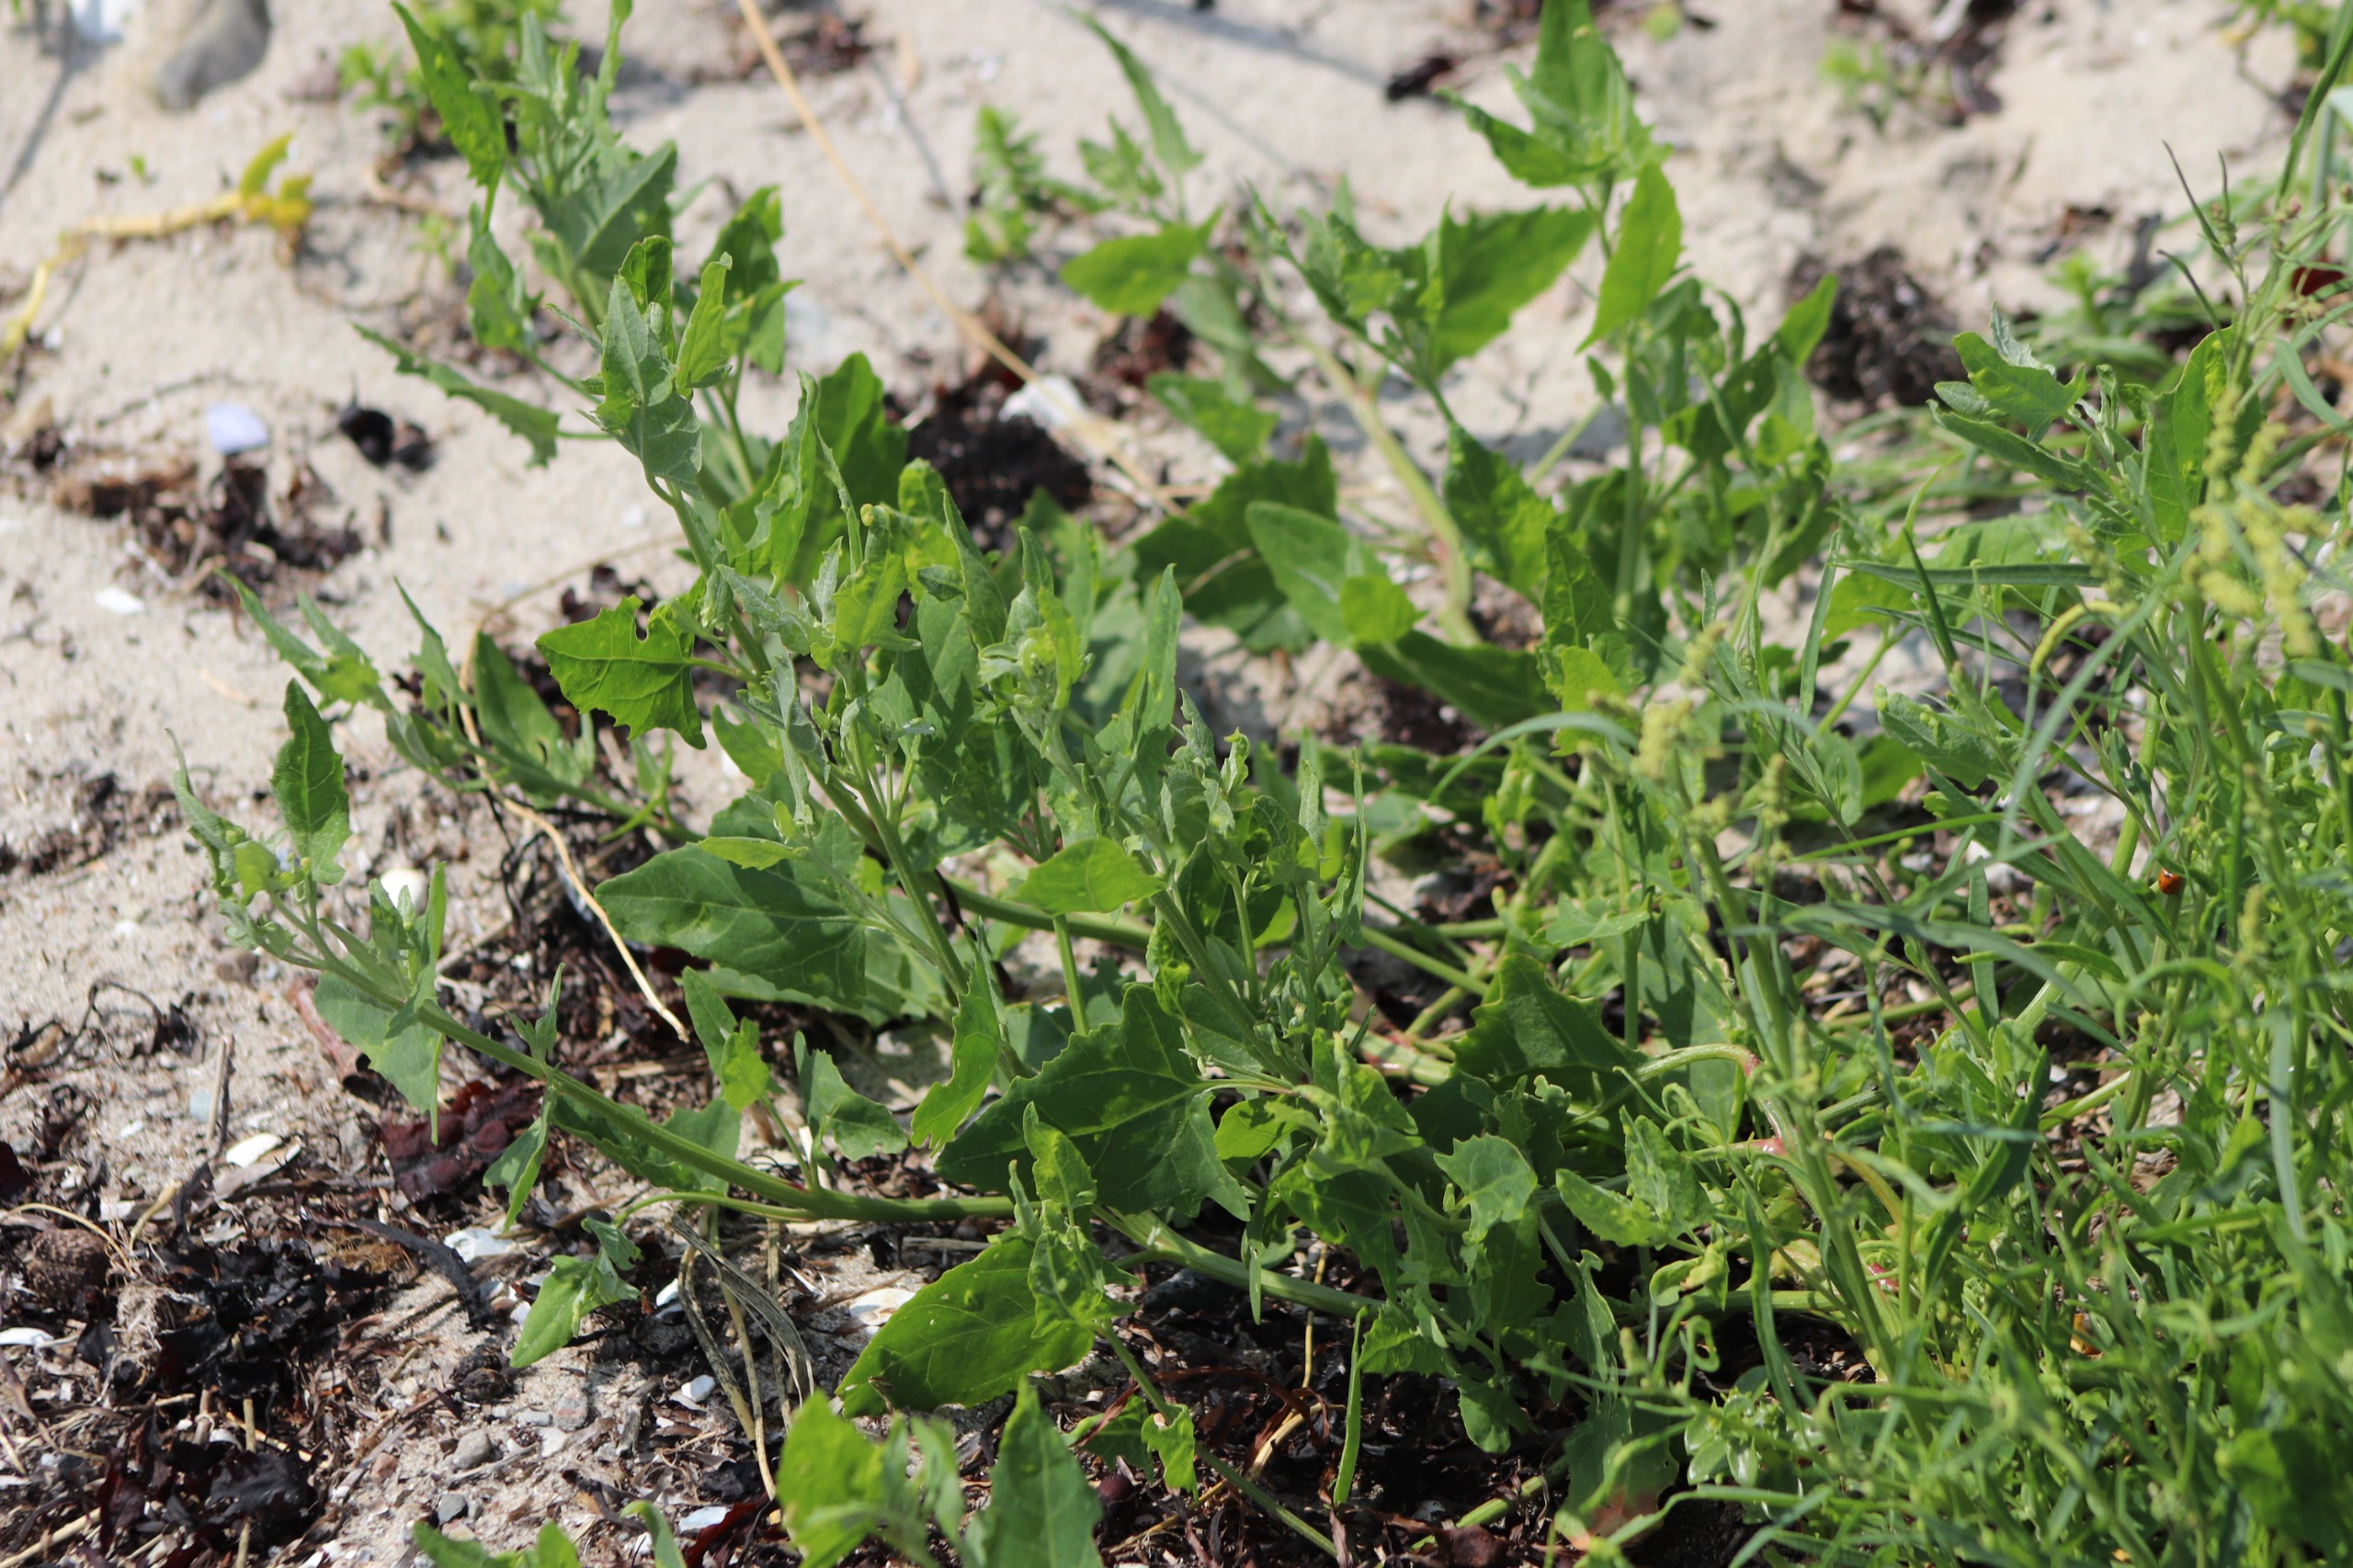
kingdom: Plantae
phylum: Tracheophyta
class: Magnoliopsida
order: Caryophyllales
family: Amaranthaceae
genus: Atriplex
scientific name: Atriplex prostrata
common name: Spyd-mælde
